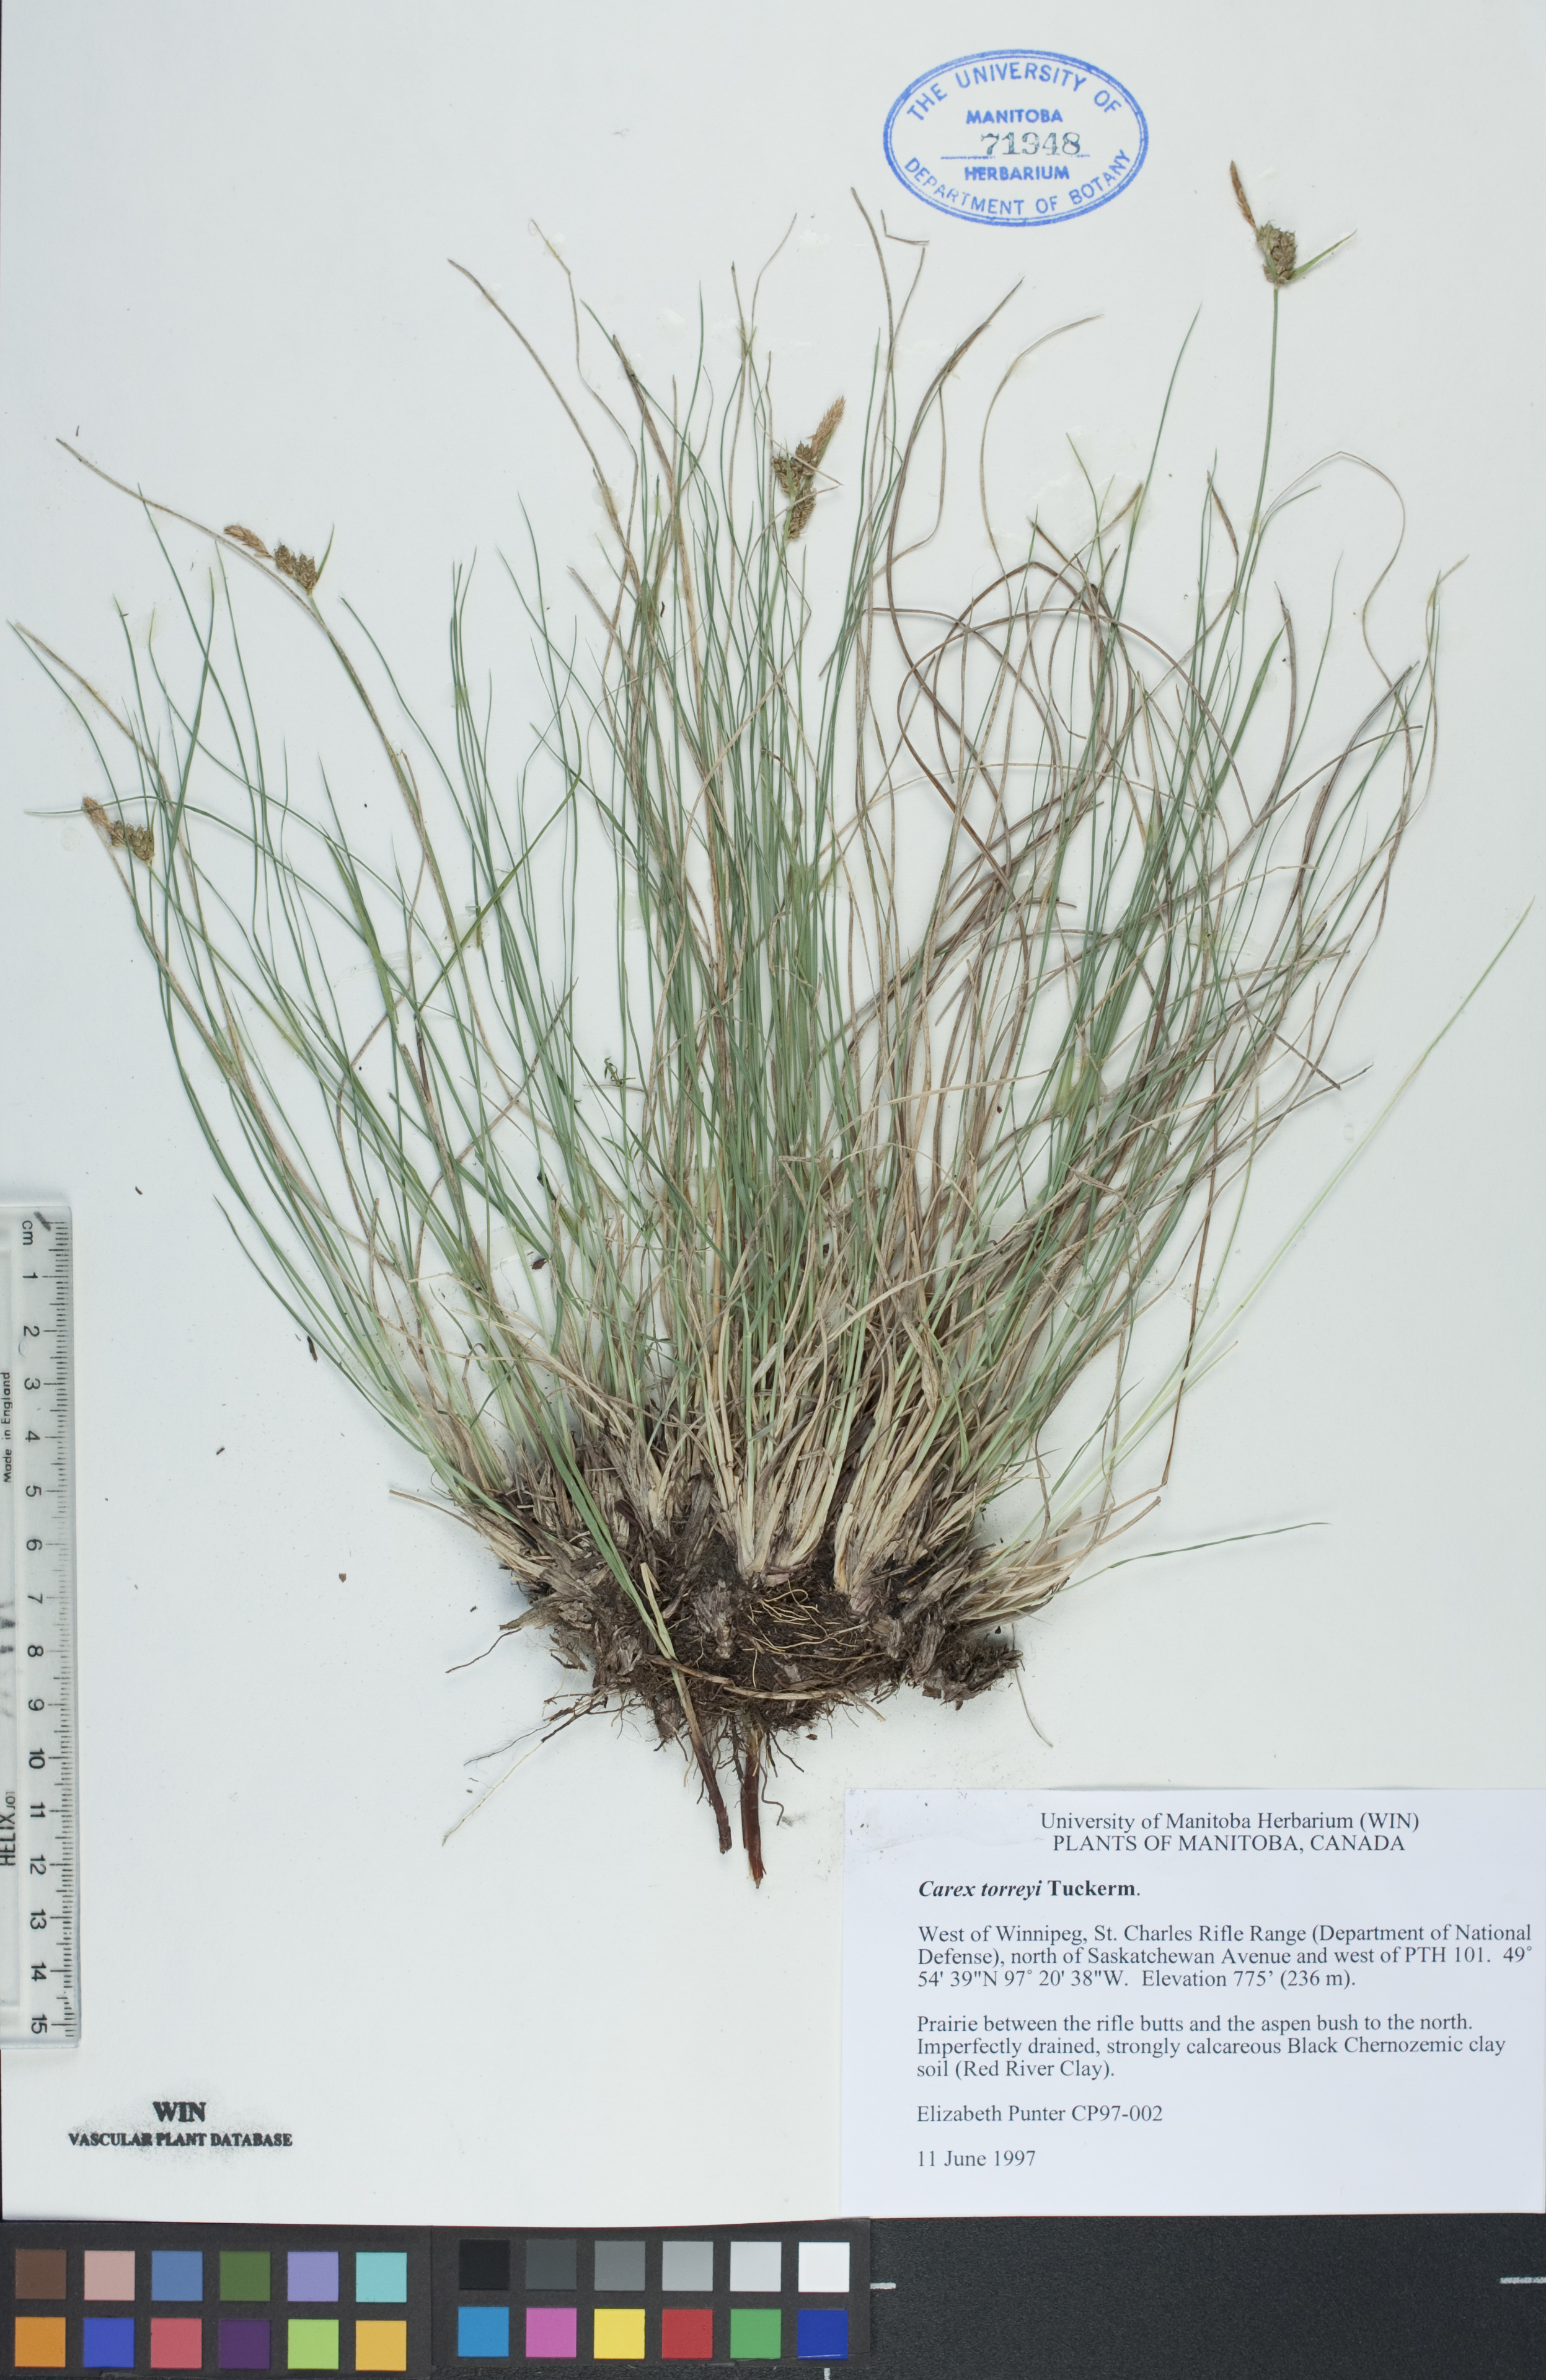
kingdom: Plantae
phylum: Tracheophyta
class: Liliopsida
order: Poales
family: Cyperaceae
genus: Carex
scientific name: Carex torreyi
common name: Torrey's sedge
